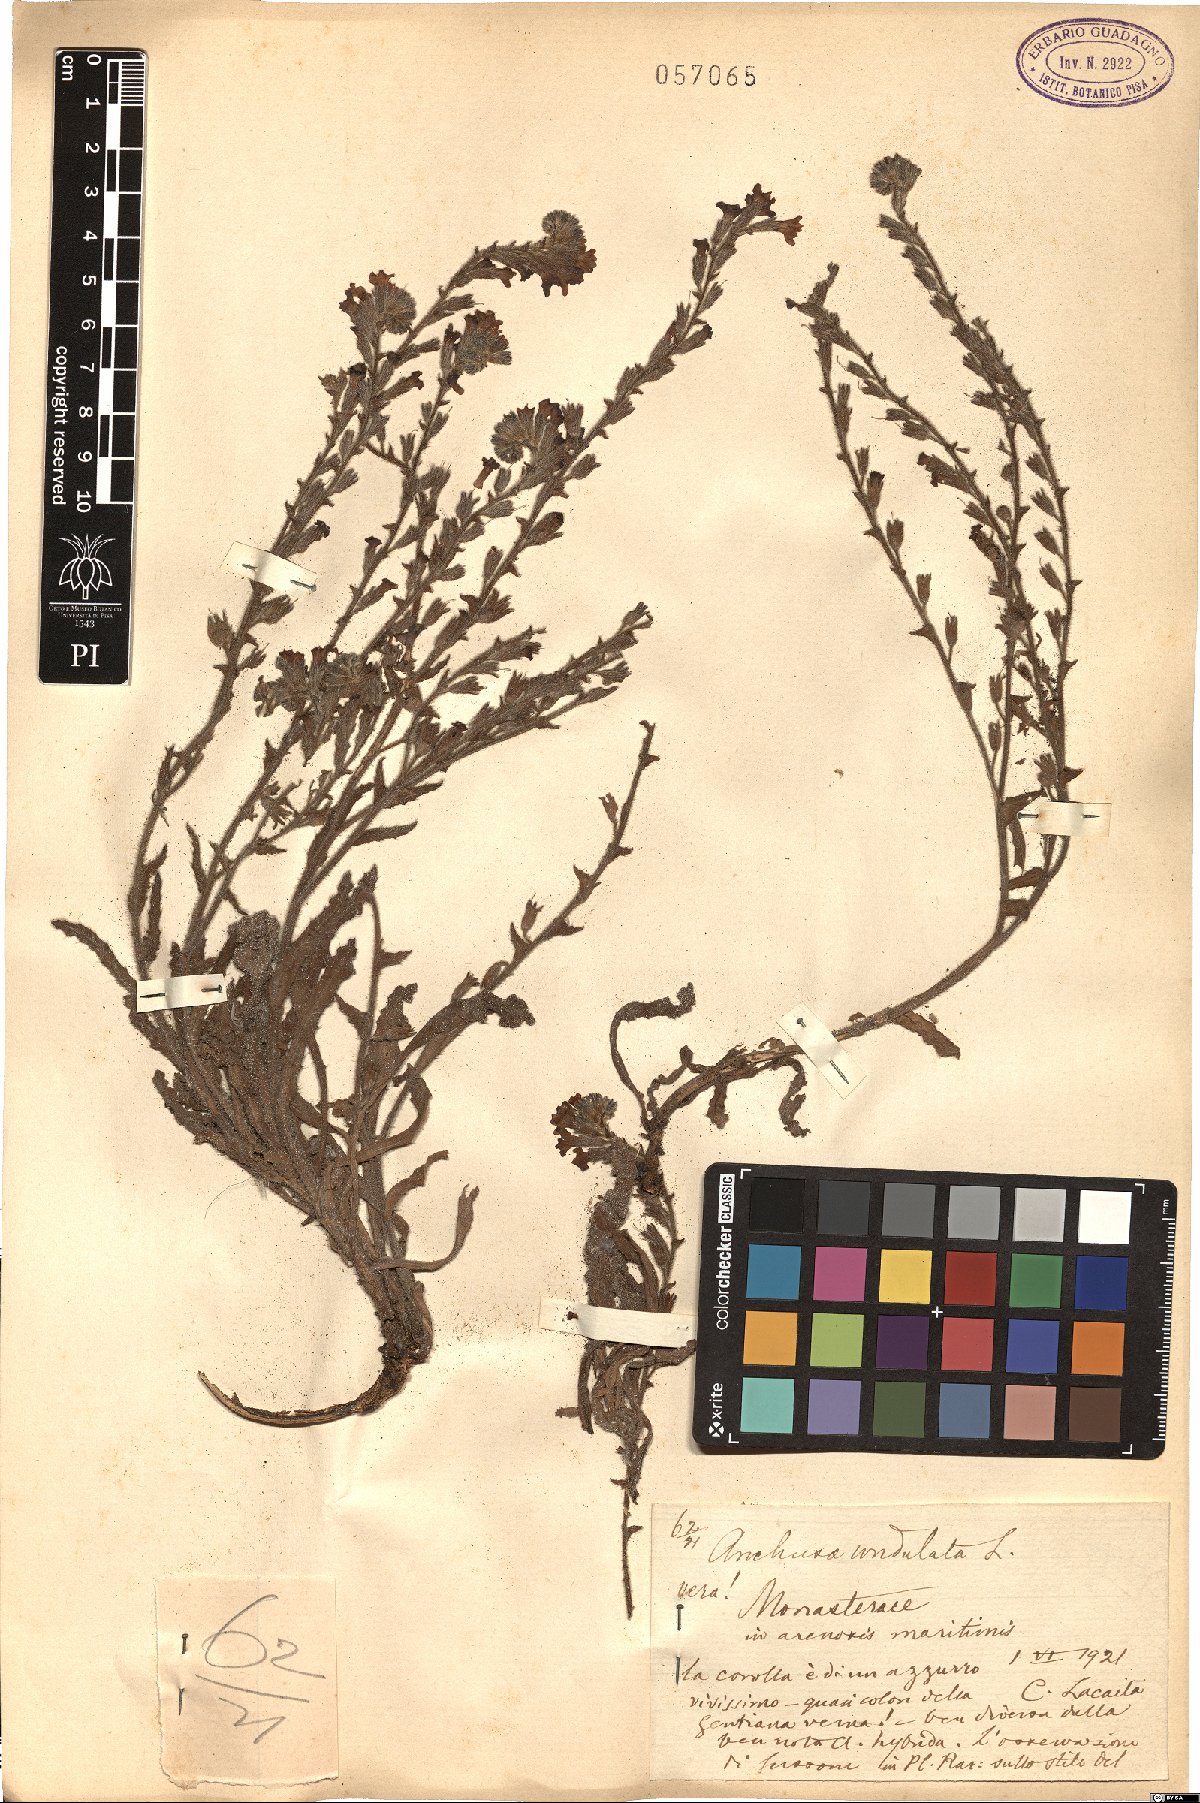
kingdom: Plantae
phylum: Tracheophyta
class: Magnoliopsida
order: Boraginales
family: Boraginaceae
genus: Anchusa
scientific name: Anchusa undulata
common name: Undulate alkanet
